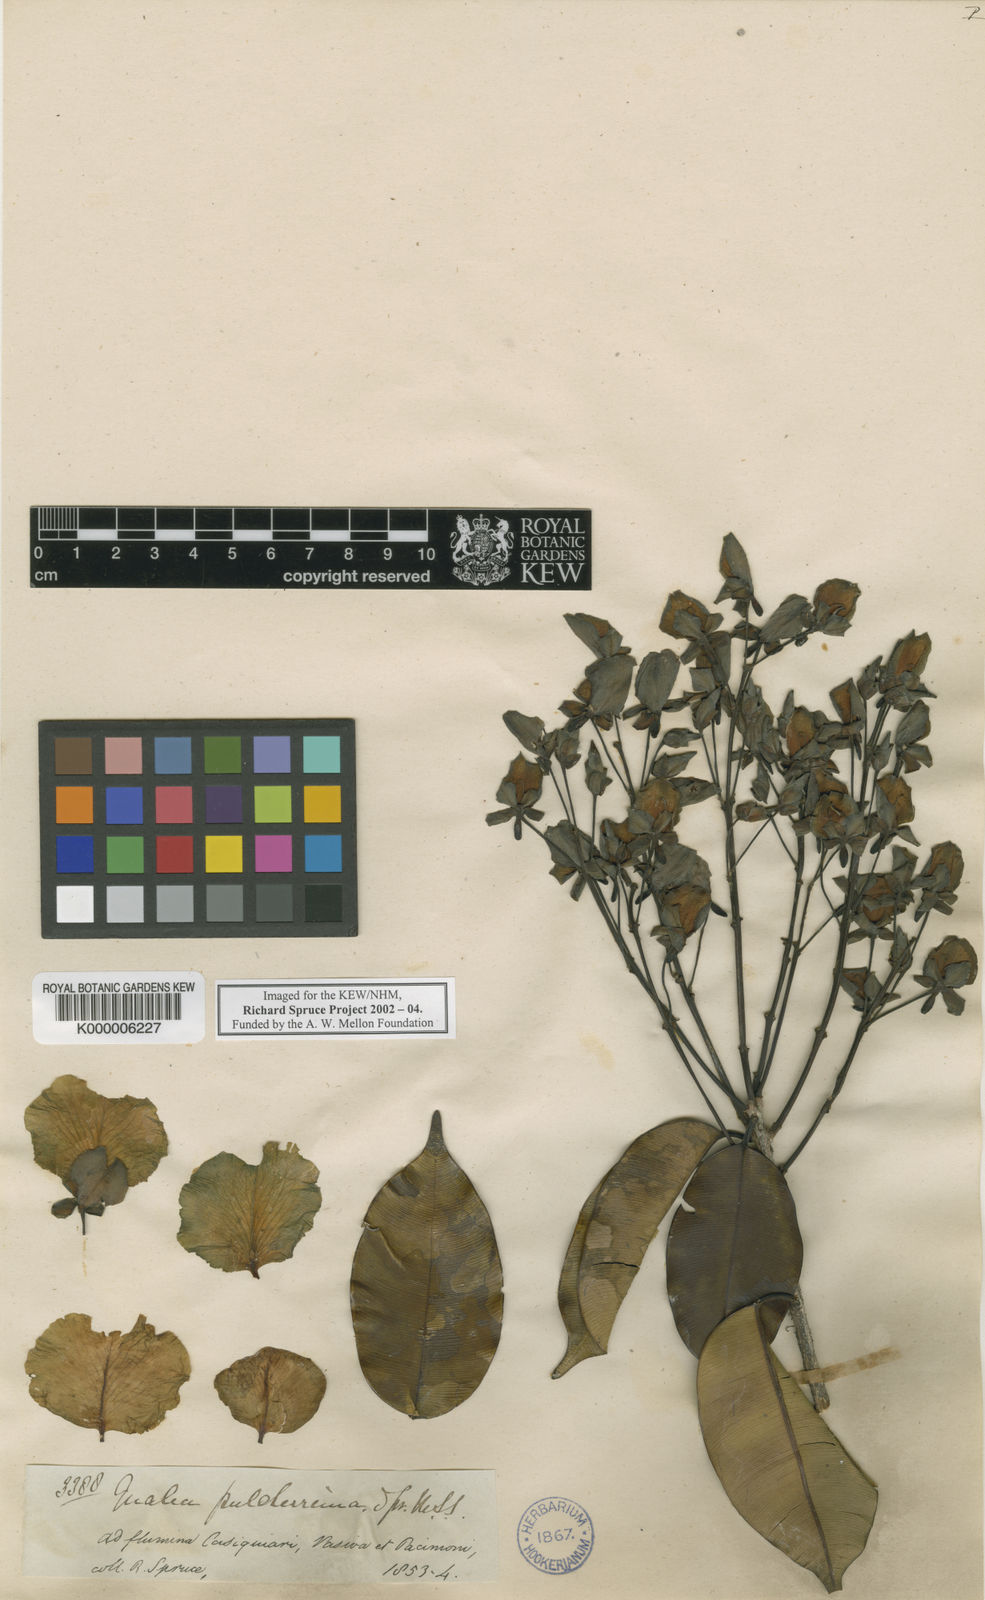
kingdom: Plantae
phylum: Tracheophyta
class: Magnoliopsida
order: Myrtales
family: Vochysiaceae
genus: Qualea
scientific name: Qualea pulcherrima
